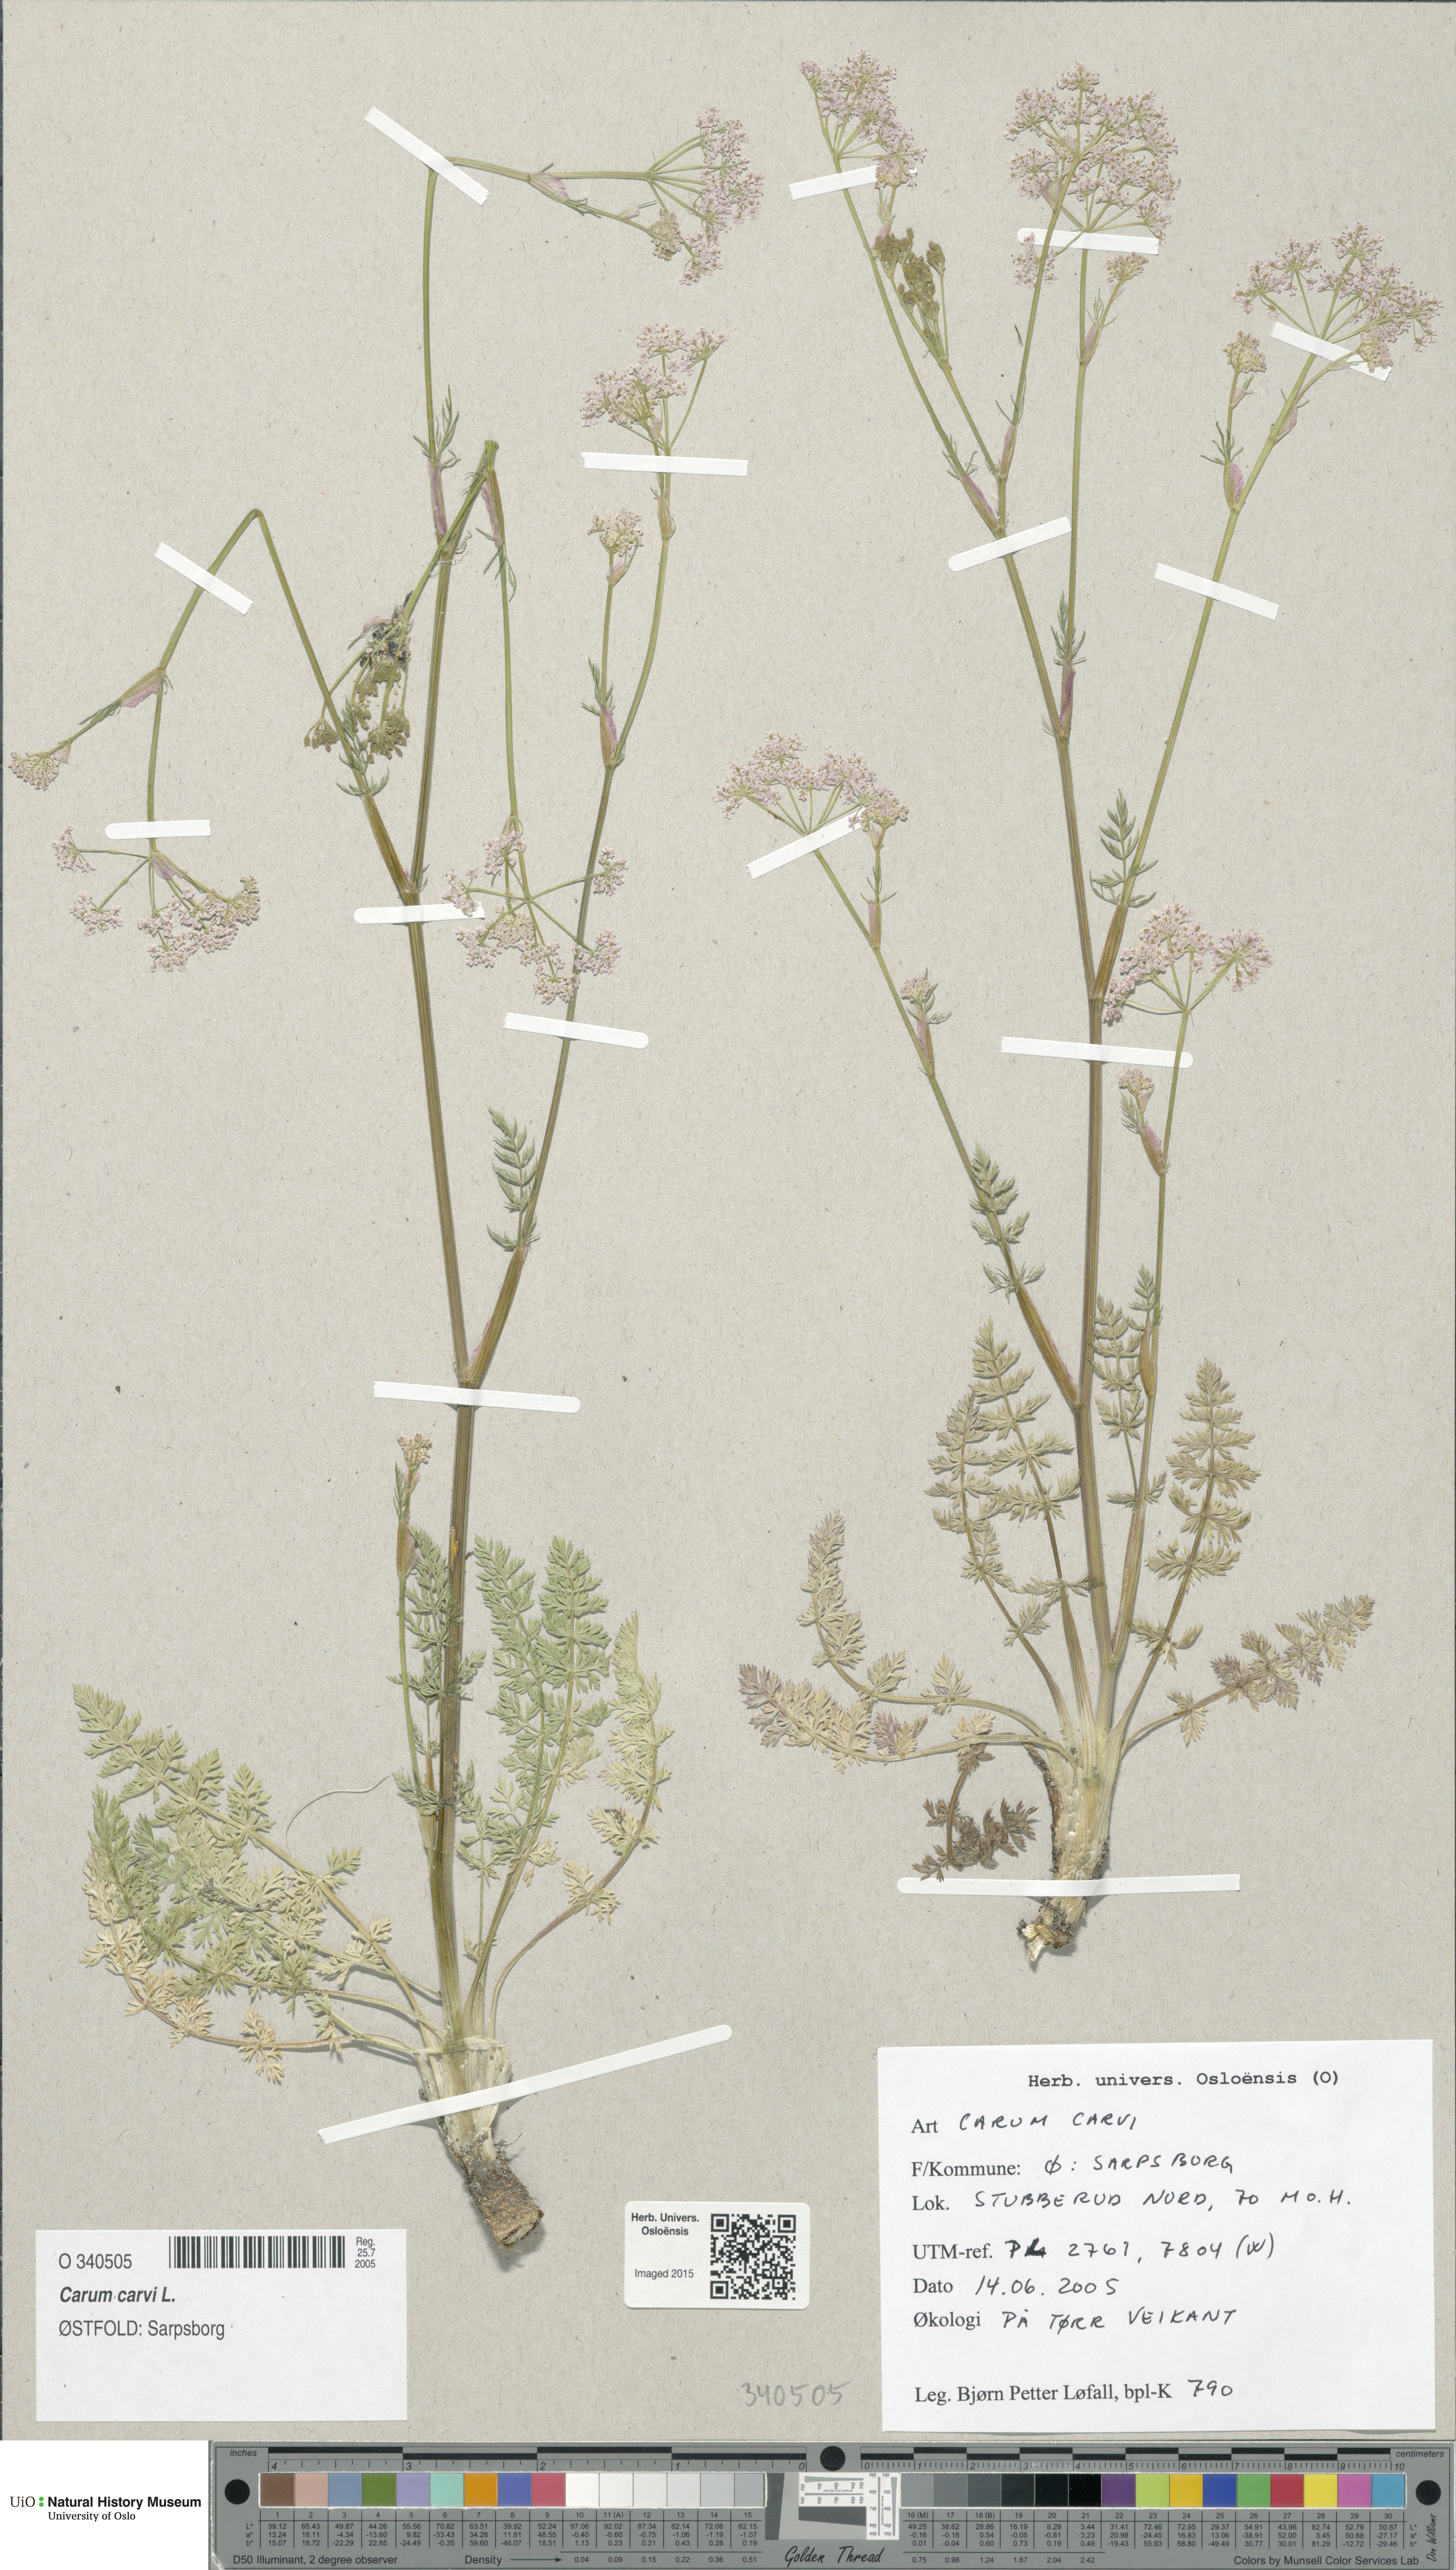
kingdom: Plantae
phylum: Tracheophyta
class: Magnoliopsida
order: Apiales
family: Apiaceae
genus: Carum
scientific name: Carum carvi
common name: Caraway
